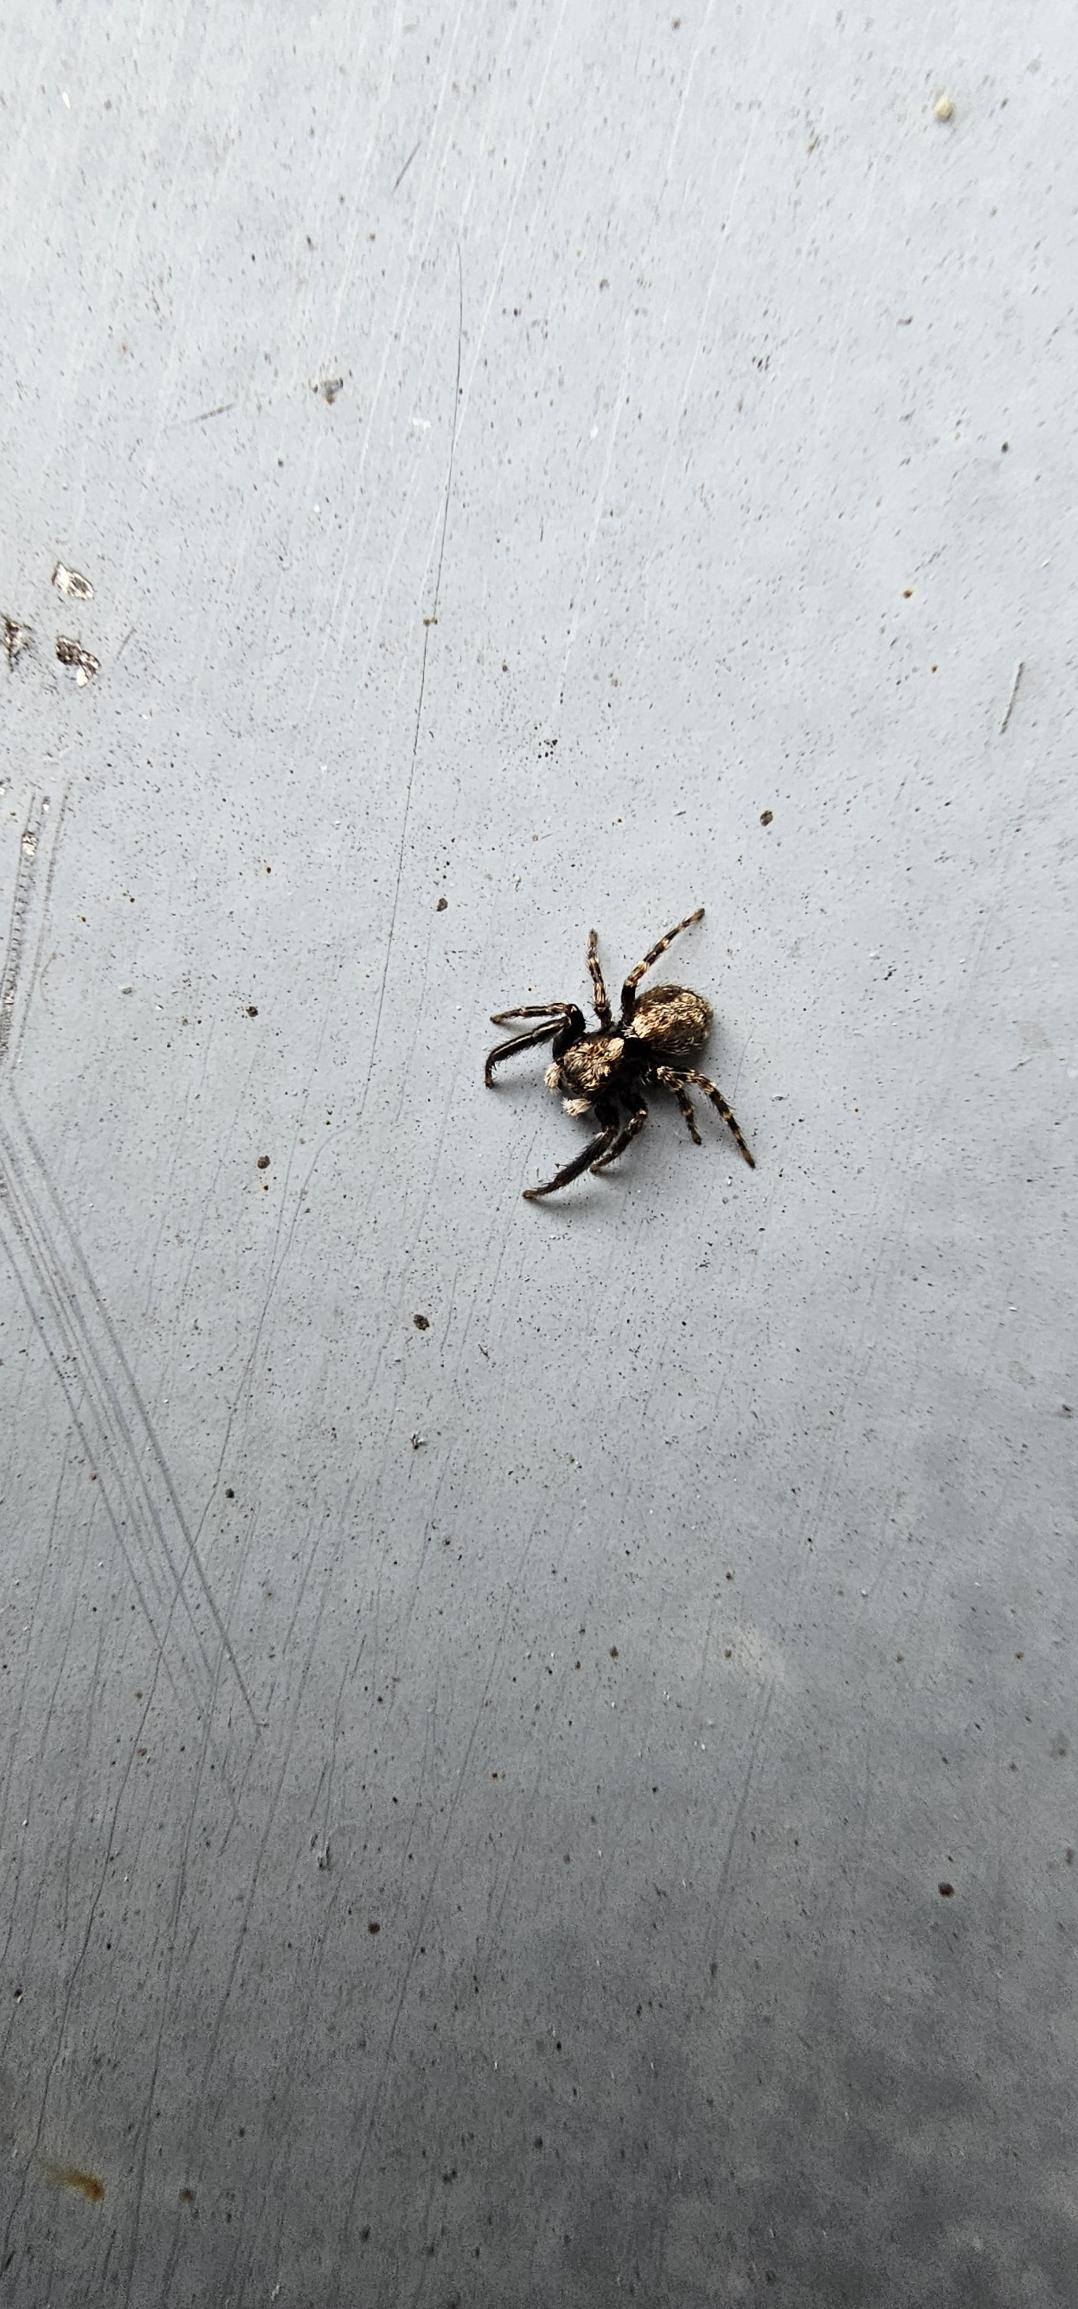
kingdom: Animalia
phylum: Arthropoda
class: Arachnida
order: Araneae
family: Salticidae
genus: Pseudeuophrys
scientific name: Pseudeuophrys lanigera
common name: Vinduesspringer
